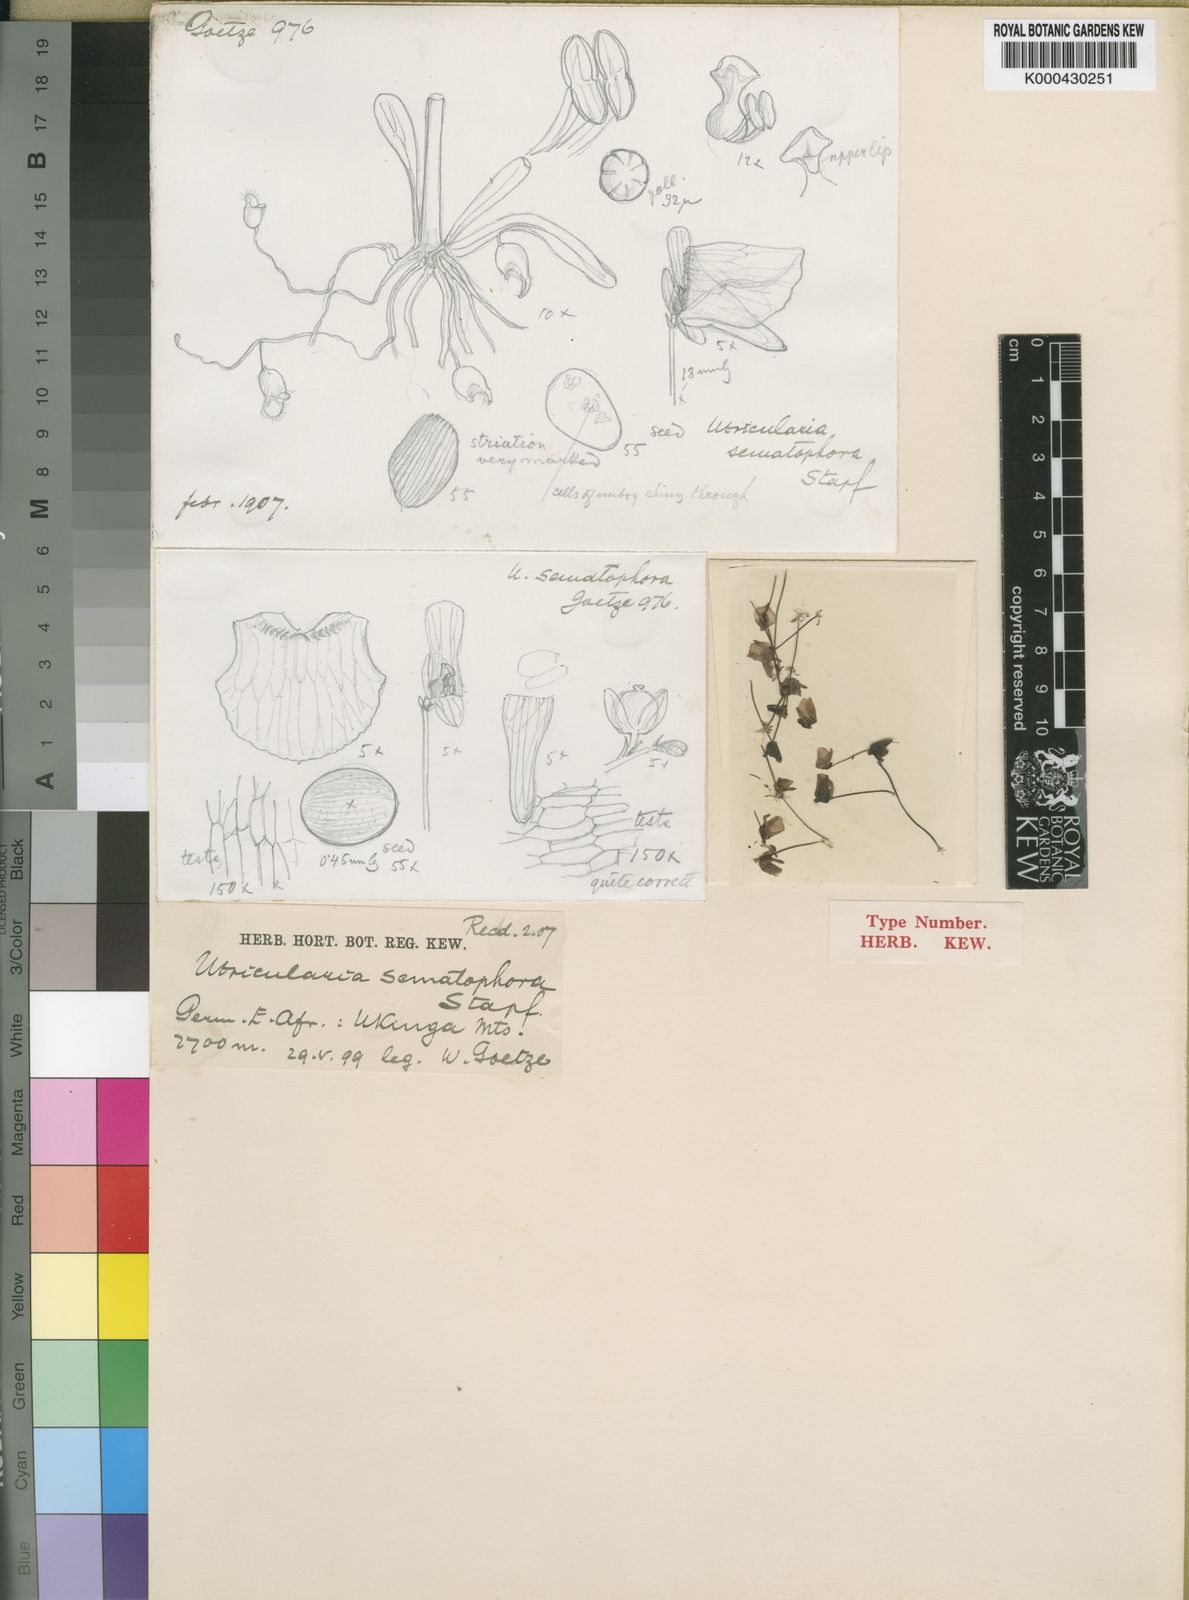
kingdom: Plantae
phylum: Tracheophyta
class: Magnoliopsida
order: Lamiales
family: Lentibulariaceae
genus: Utricularia
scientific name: Utricularia livida
